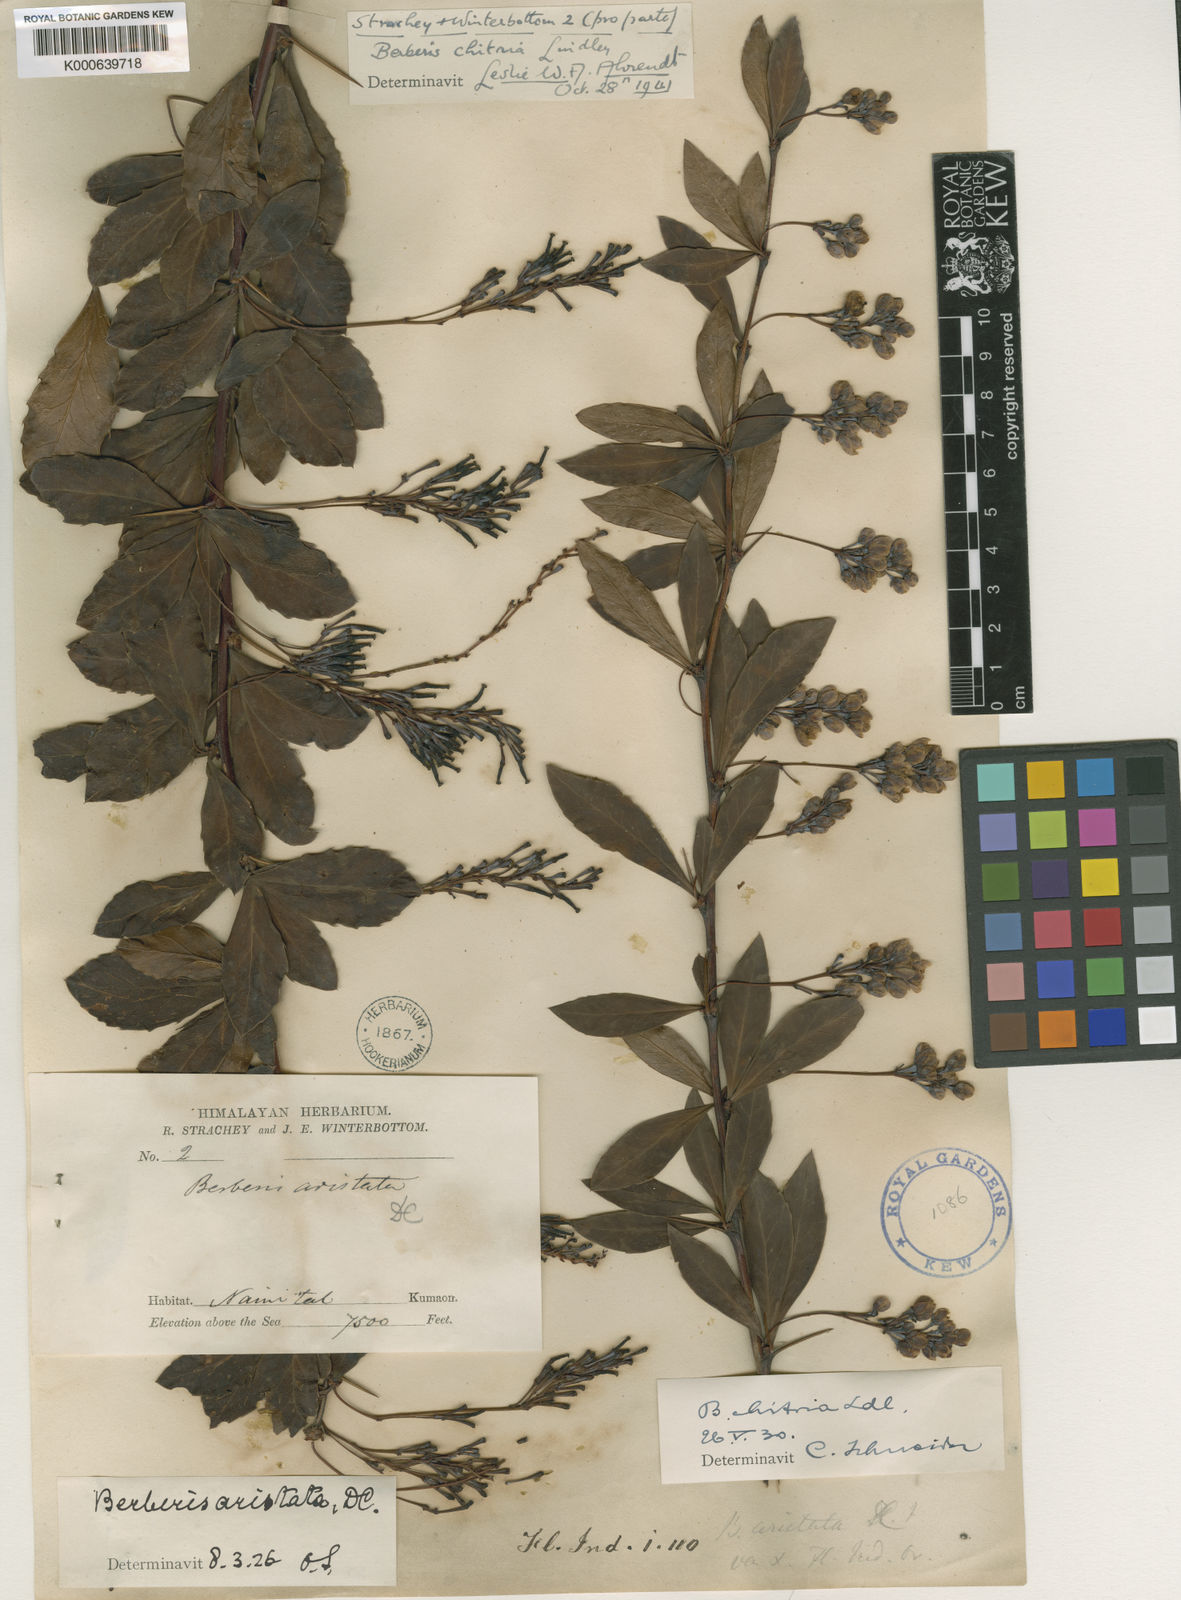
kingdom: Plantae
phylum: Tracheophyta
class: Magnoliopsida
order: Ranunculales
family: Berberidaceae
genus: Berberis
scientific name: Berberis chitria
